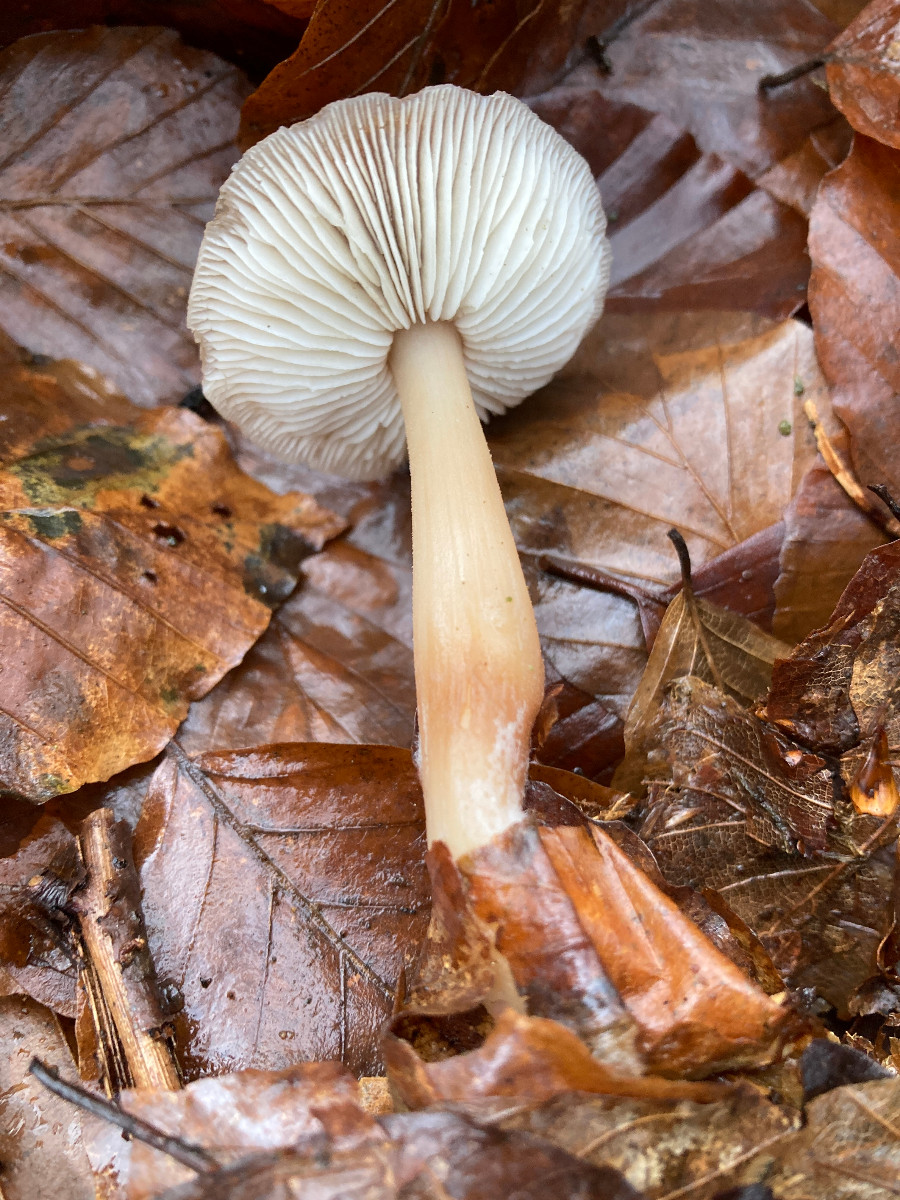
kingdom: Fungi
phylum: Basidiomycota
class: Agaricomycetes
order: Agaricales
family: Omphalotaceae
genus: Rhodocollybia
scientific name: Rhodocollybia asema
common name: horngrå fladhat
